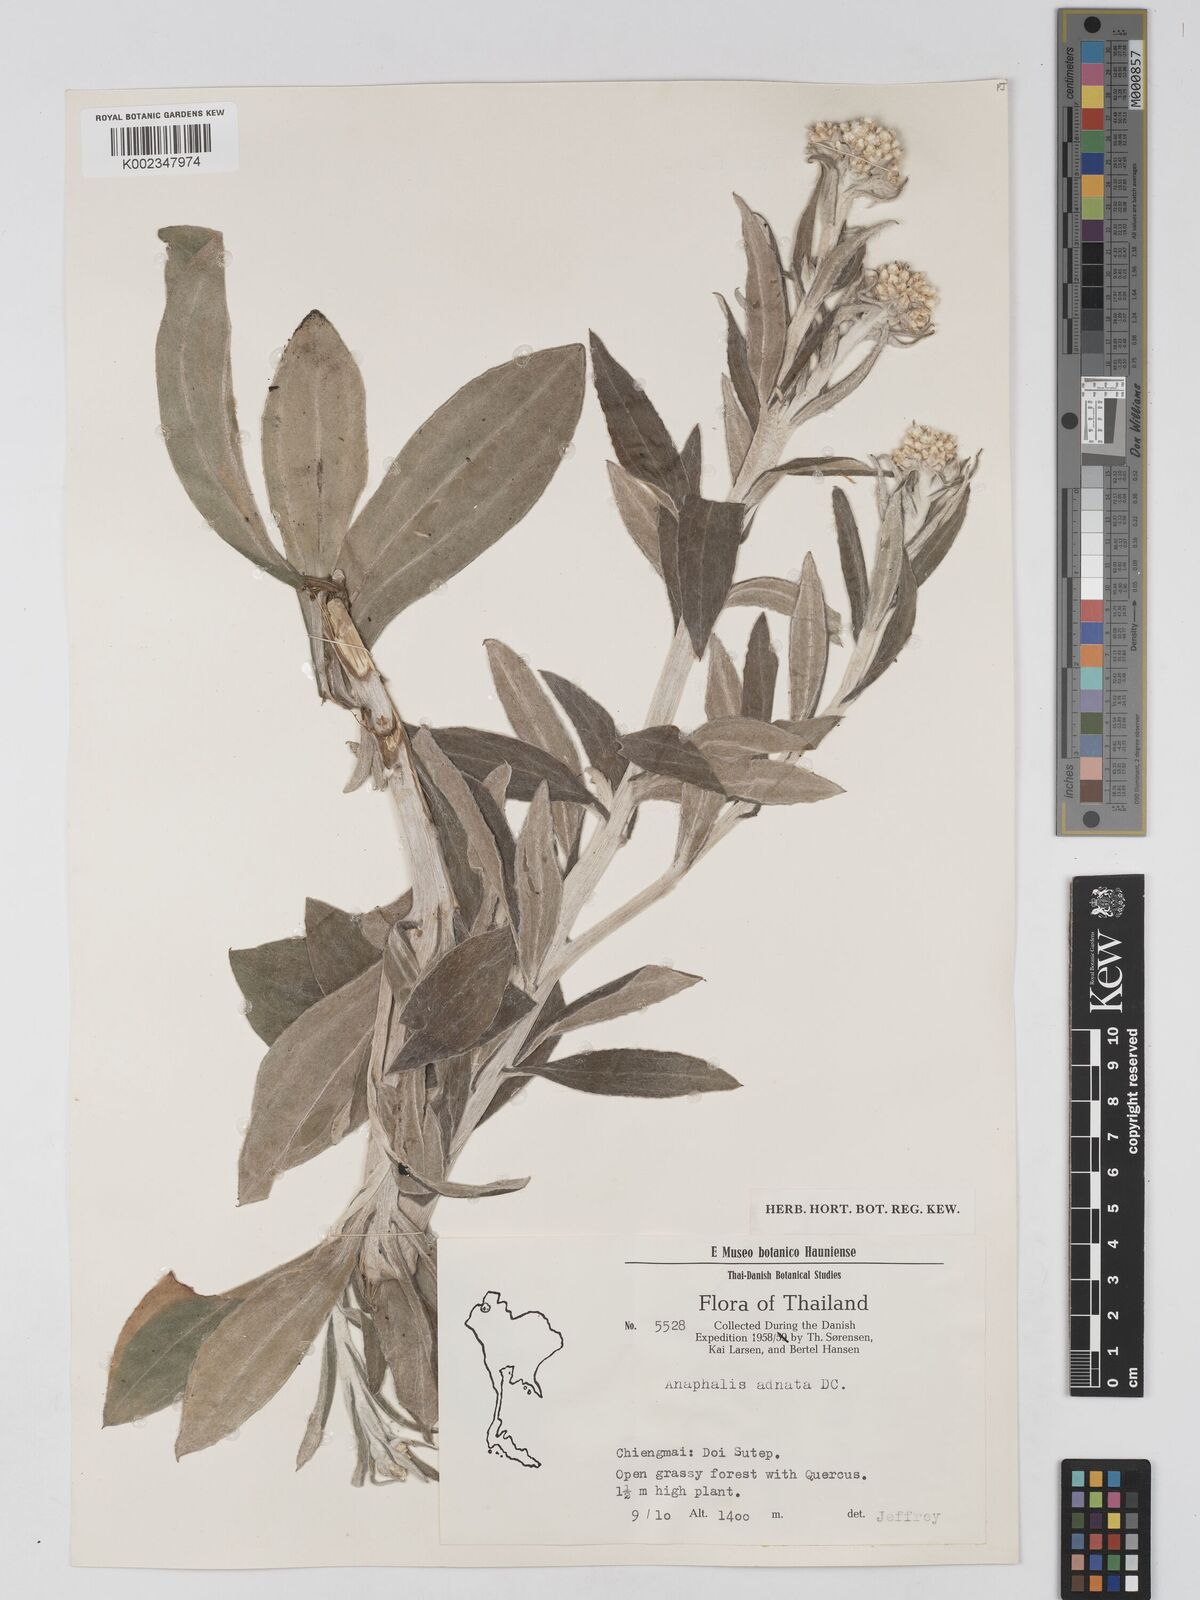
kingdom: Plantae
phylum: Tracheophyta
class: Magnoliopsida
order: Asterales
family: Asteraceae
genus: Pseudognaphalium
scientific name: Pseudognaphalium adnatum
